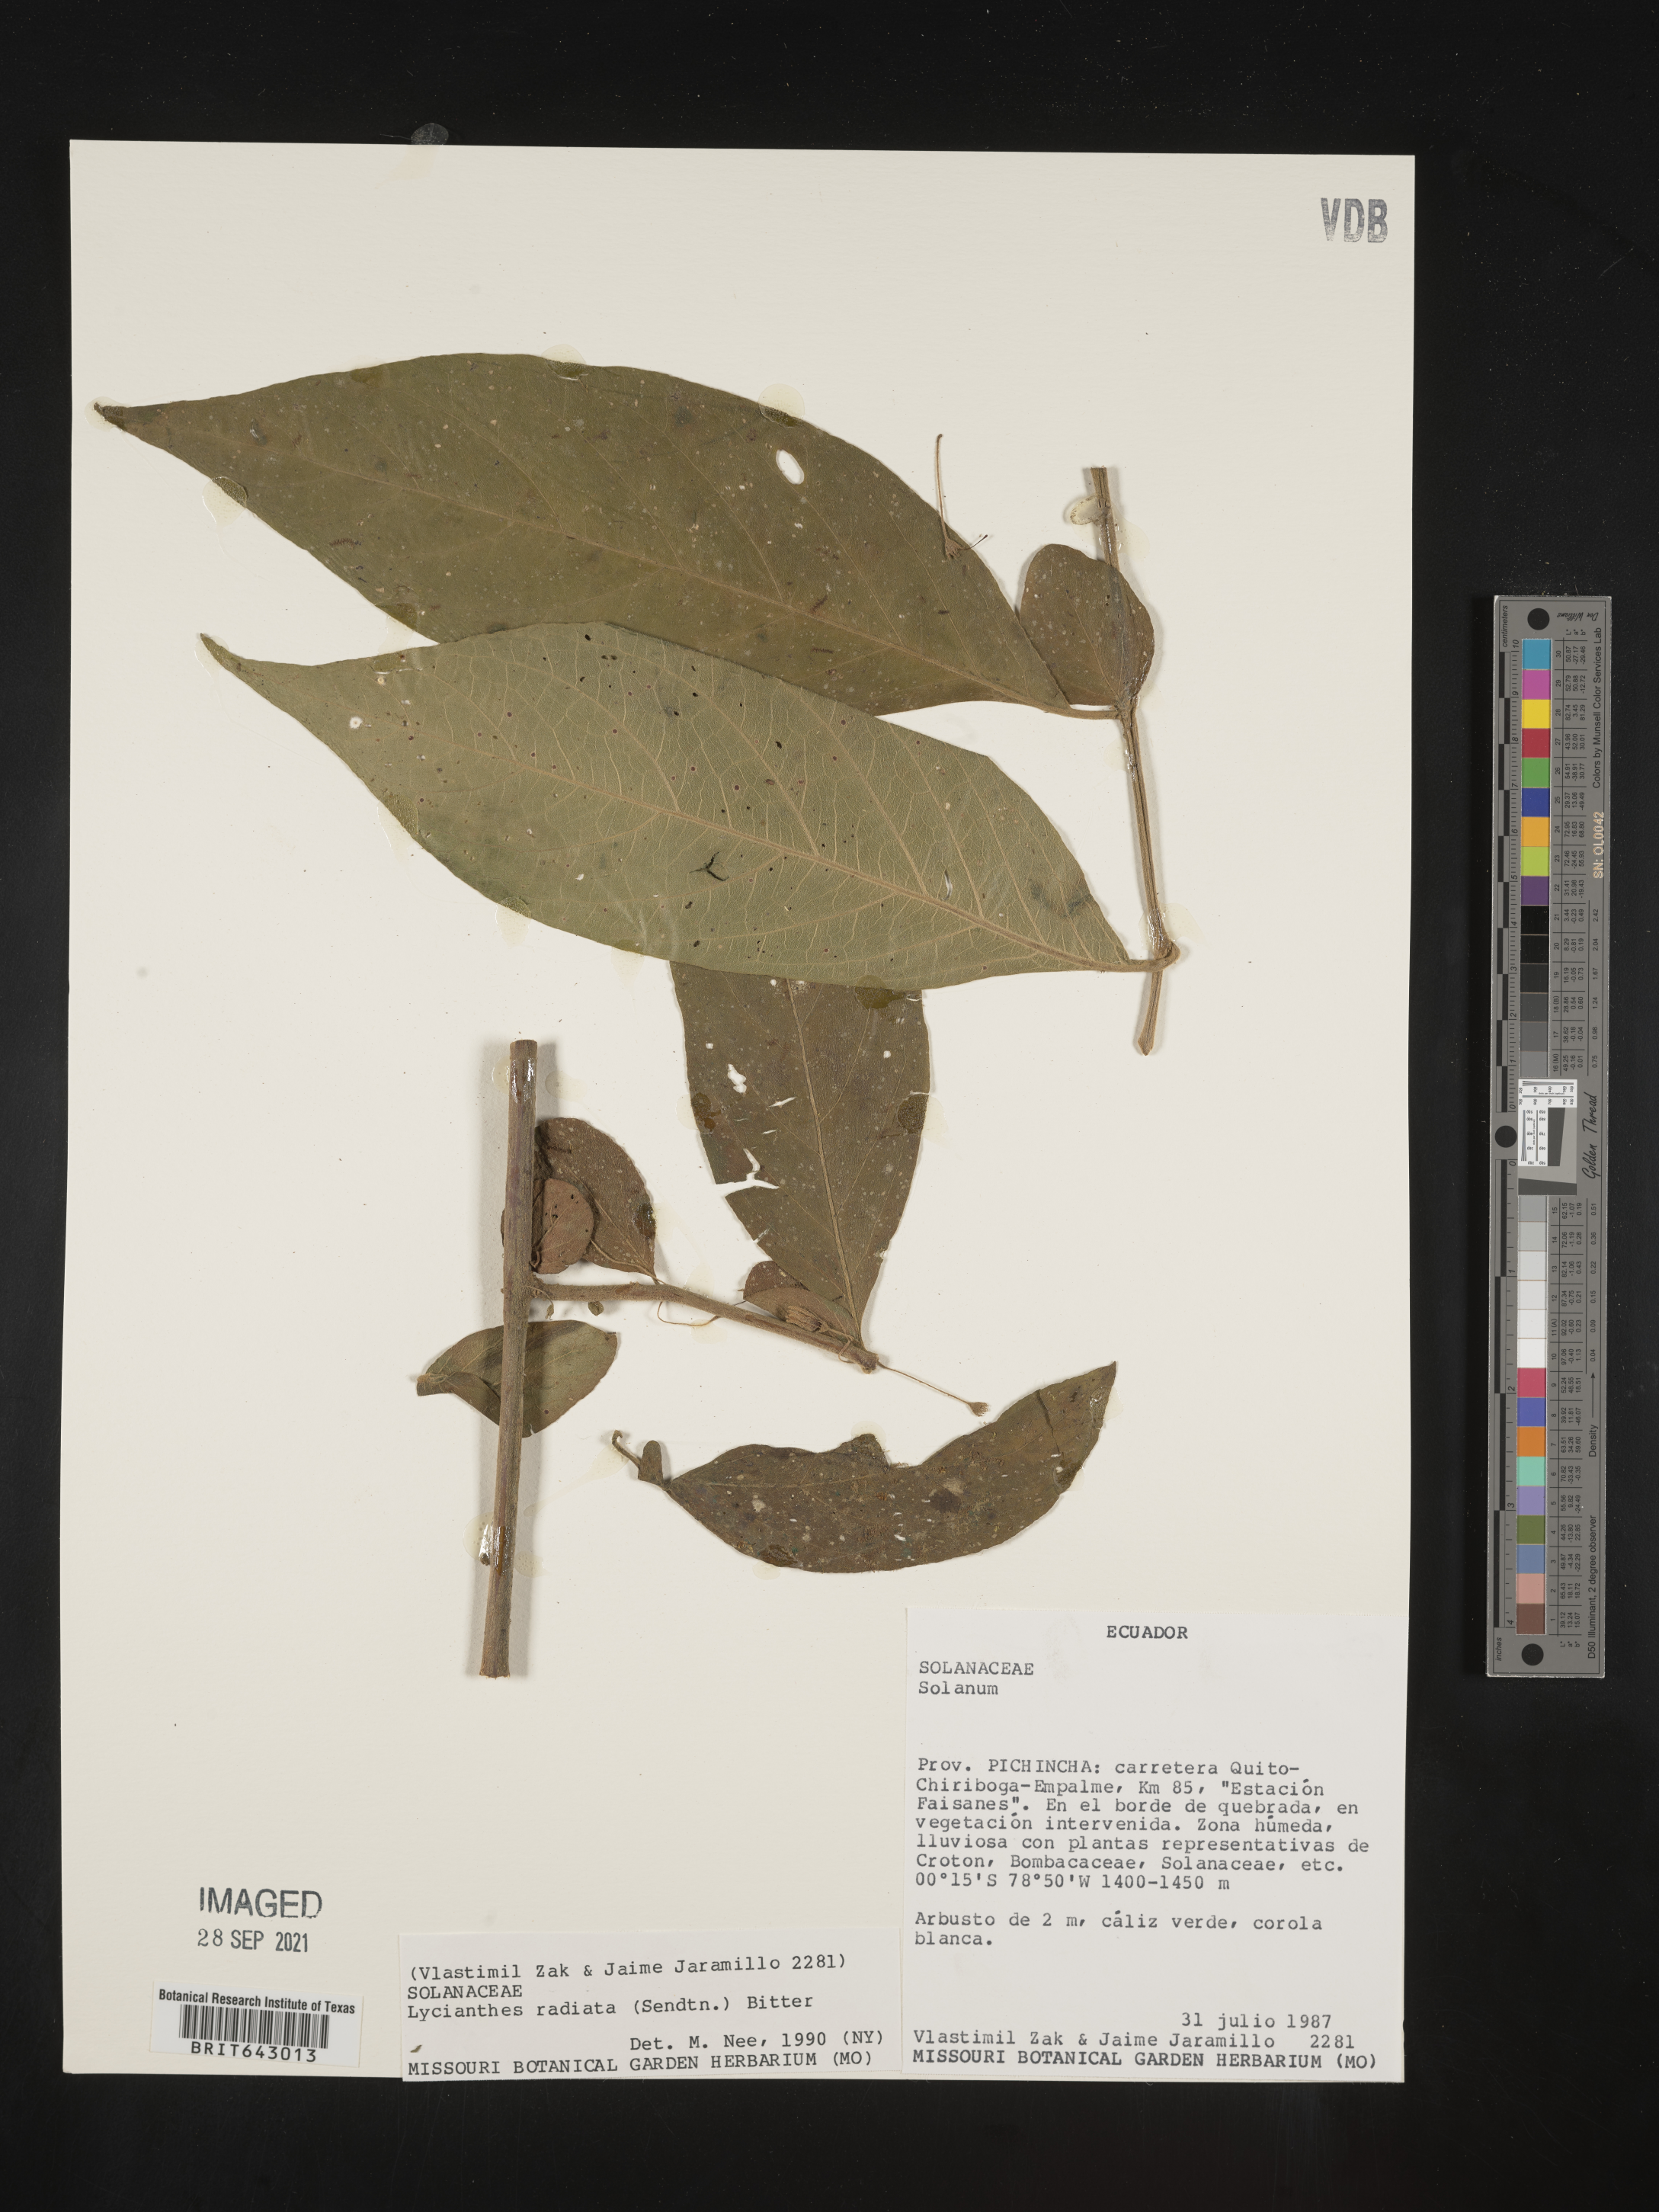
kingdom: Plantae
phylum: Tracheophyta
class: Magnoliopsida
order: Solanales
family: Solanaceae
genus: Lycianthes
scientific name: Lycianthes
